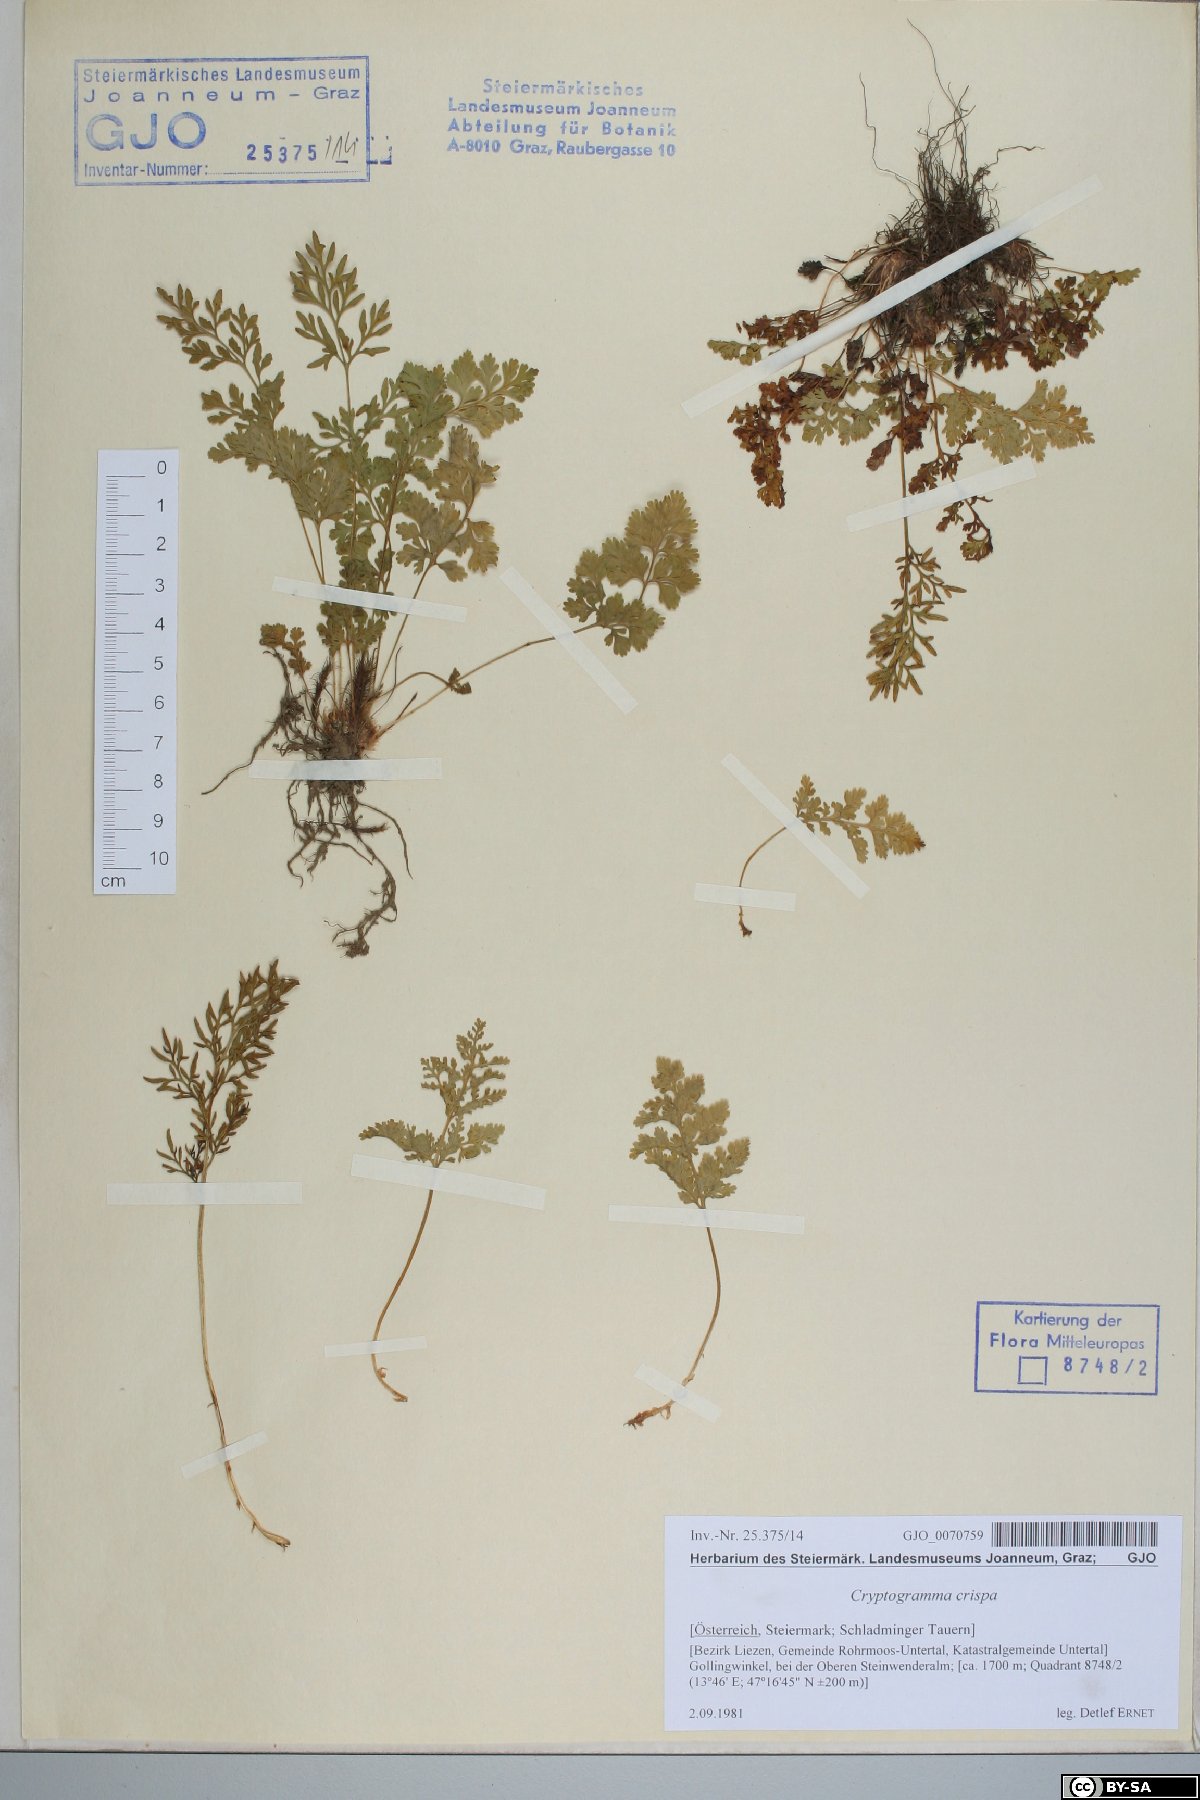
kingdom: Plantae
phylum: Tracheophyta
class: Polypodiopsida
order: Polypodiales
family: Pteridaceae
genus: Cryptogramma
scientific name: Cryptogramma crispa
